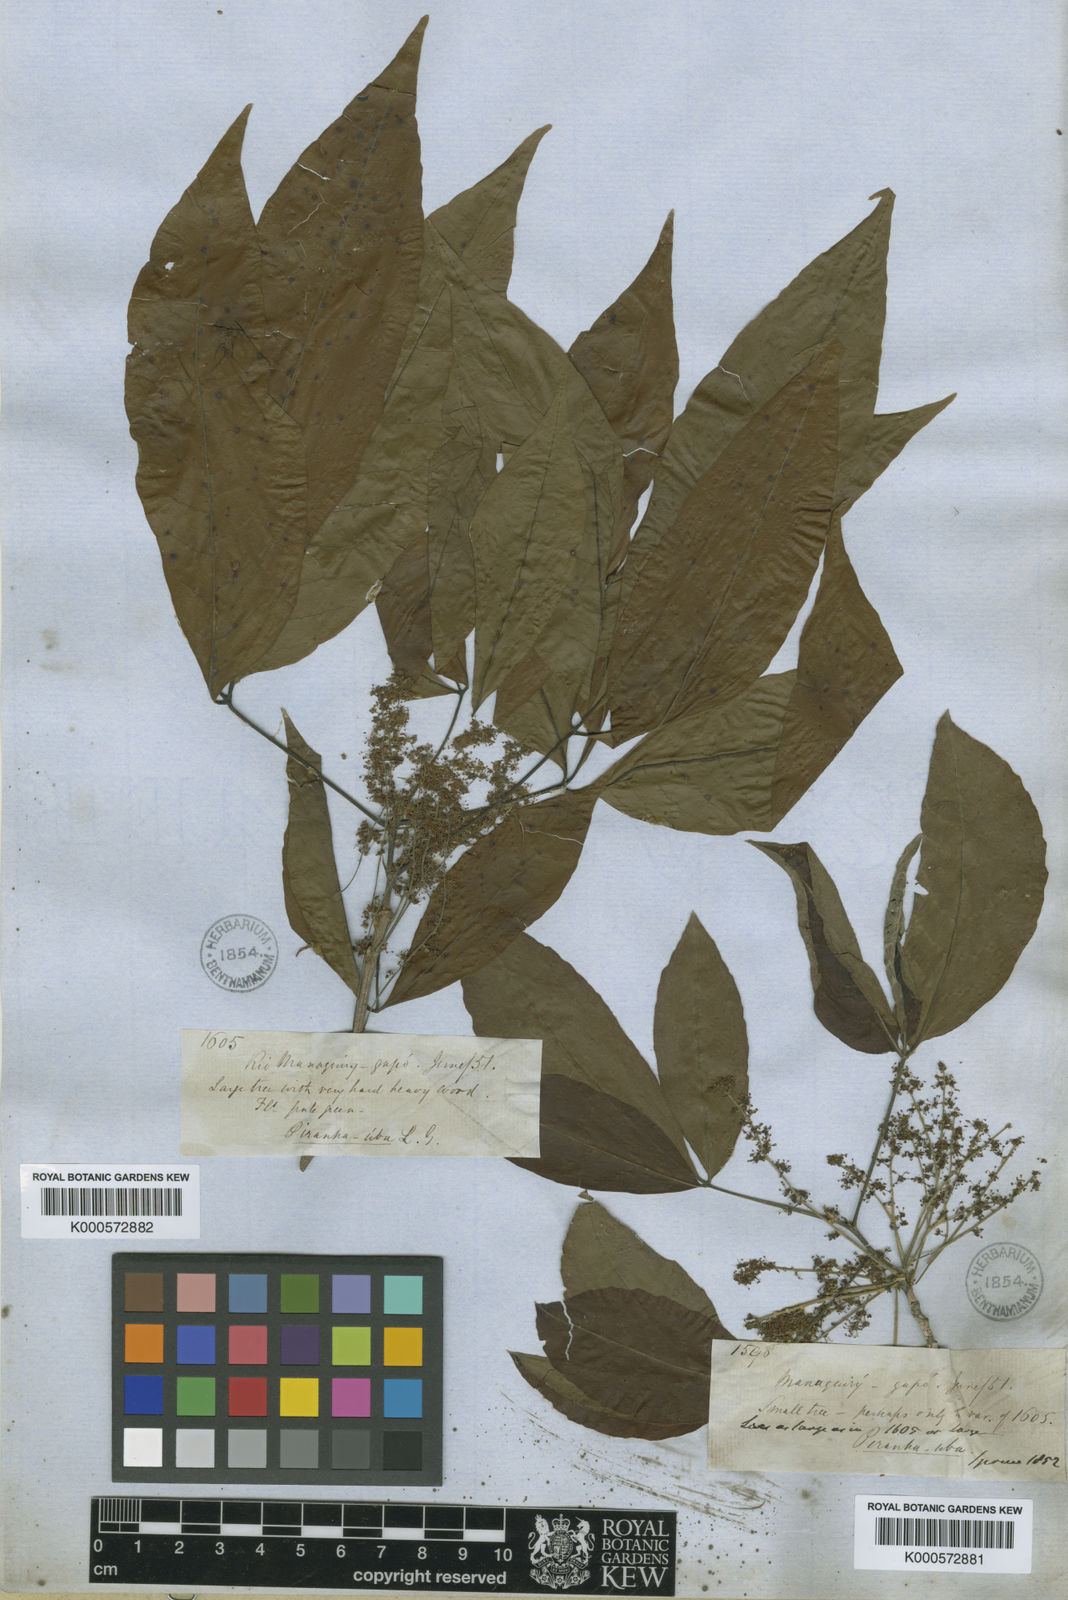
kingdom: Plantae
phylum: Tracheophyta
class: Magnoliopsida
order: Malpighiales
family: Picrodendraceae
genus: Piranhea
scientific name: Piranhea
